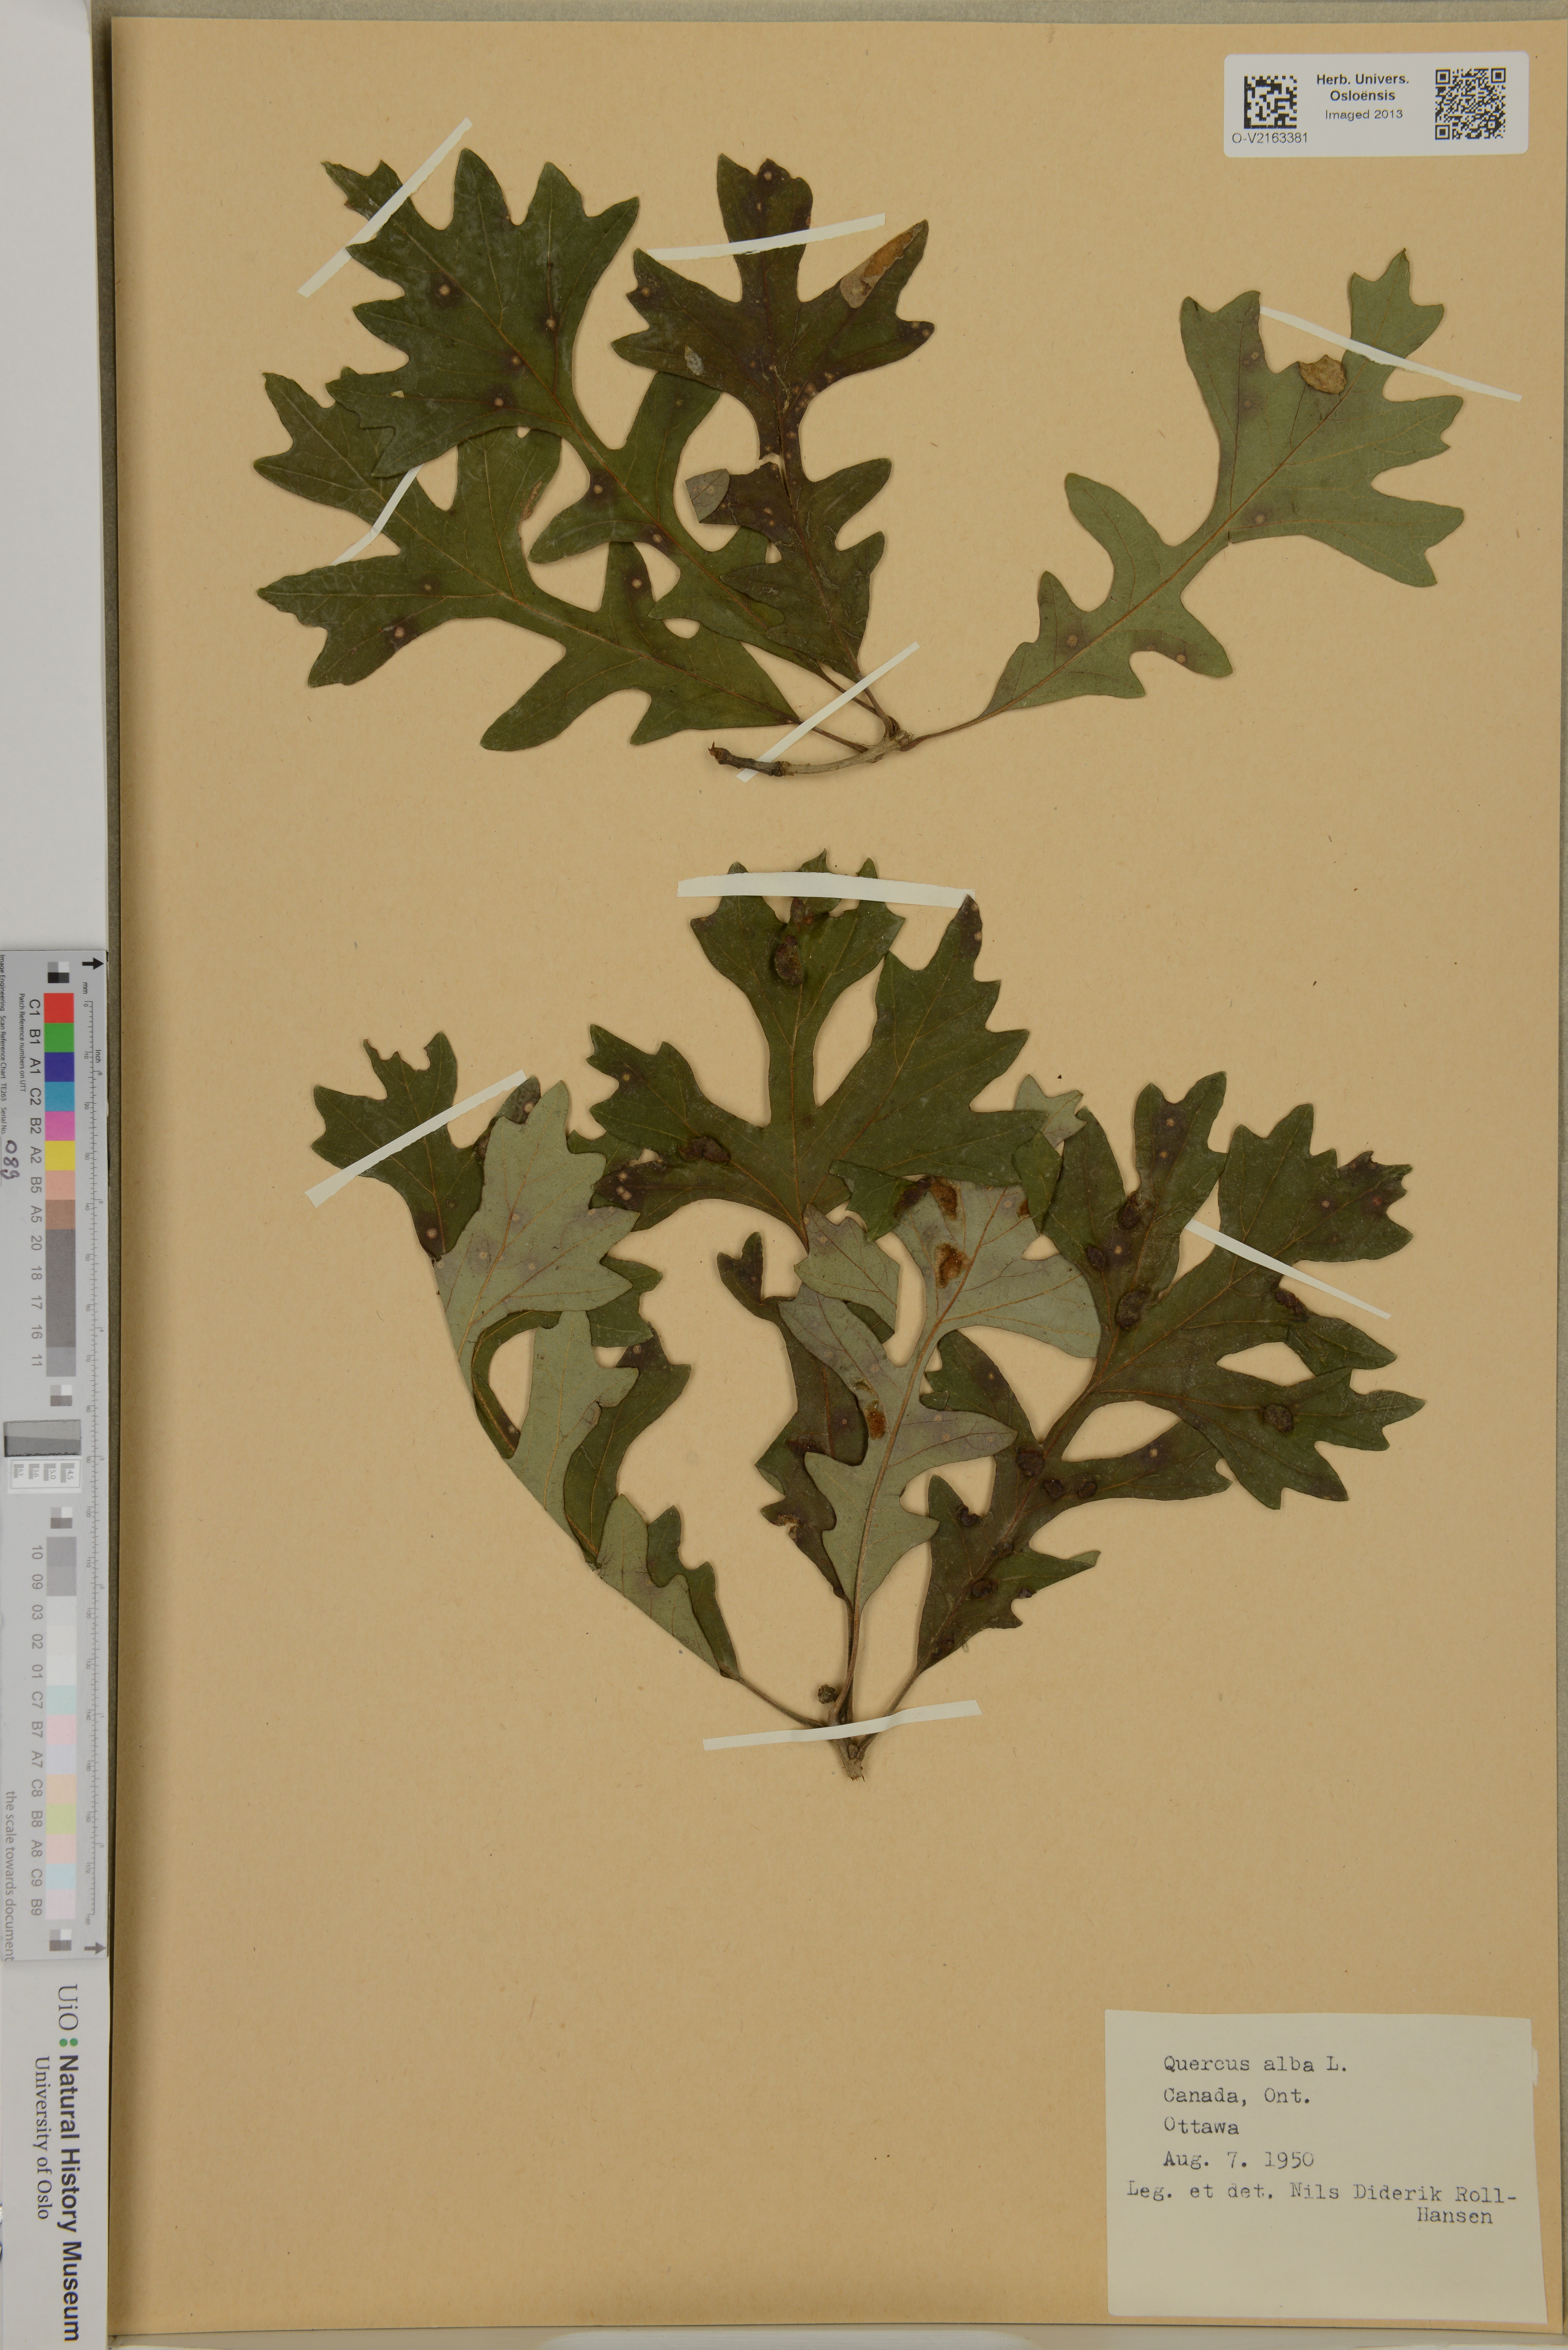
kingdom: Plantae
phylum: Tracheophyta
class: Magnoliopsida
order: Fagales
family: Fagaceae
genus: Quercus
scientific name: Quercus alba
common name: White oak
